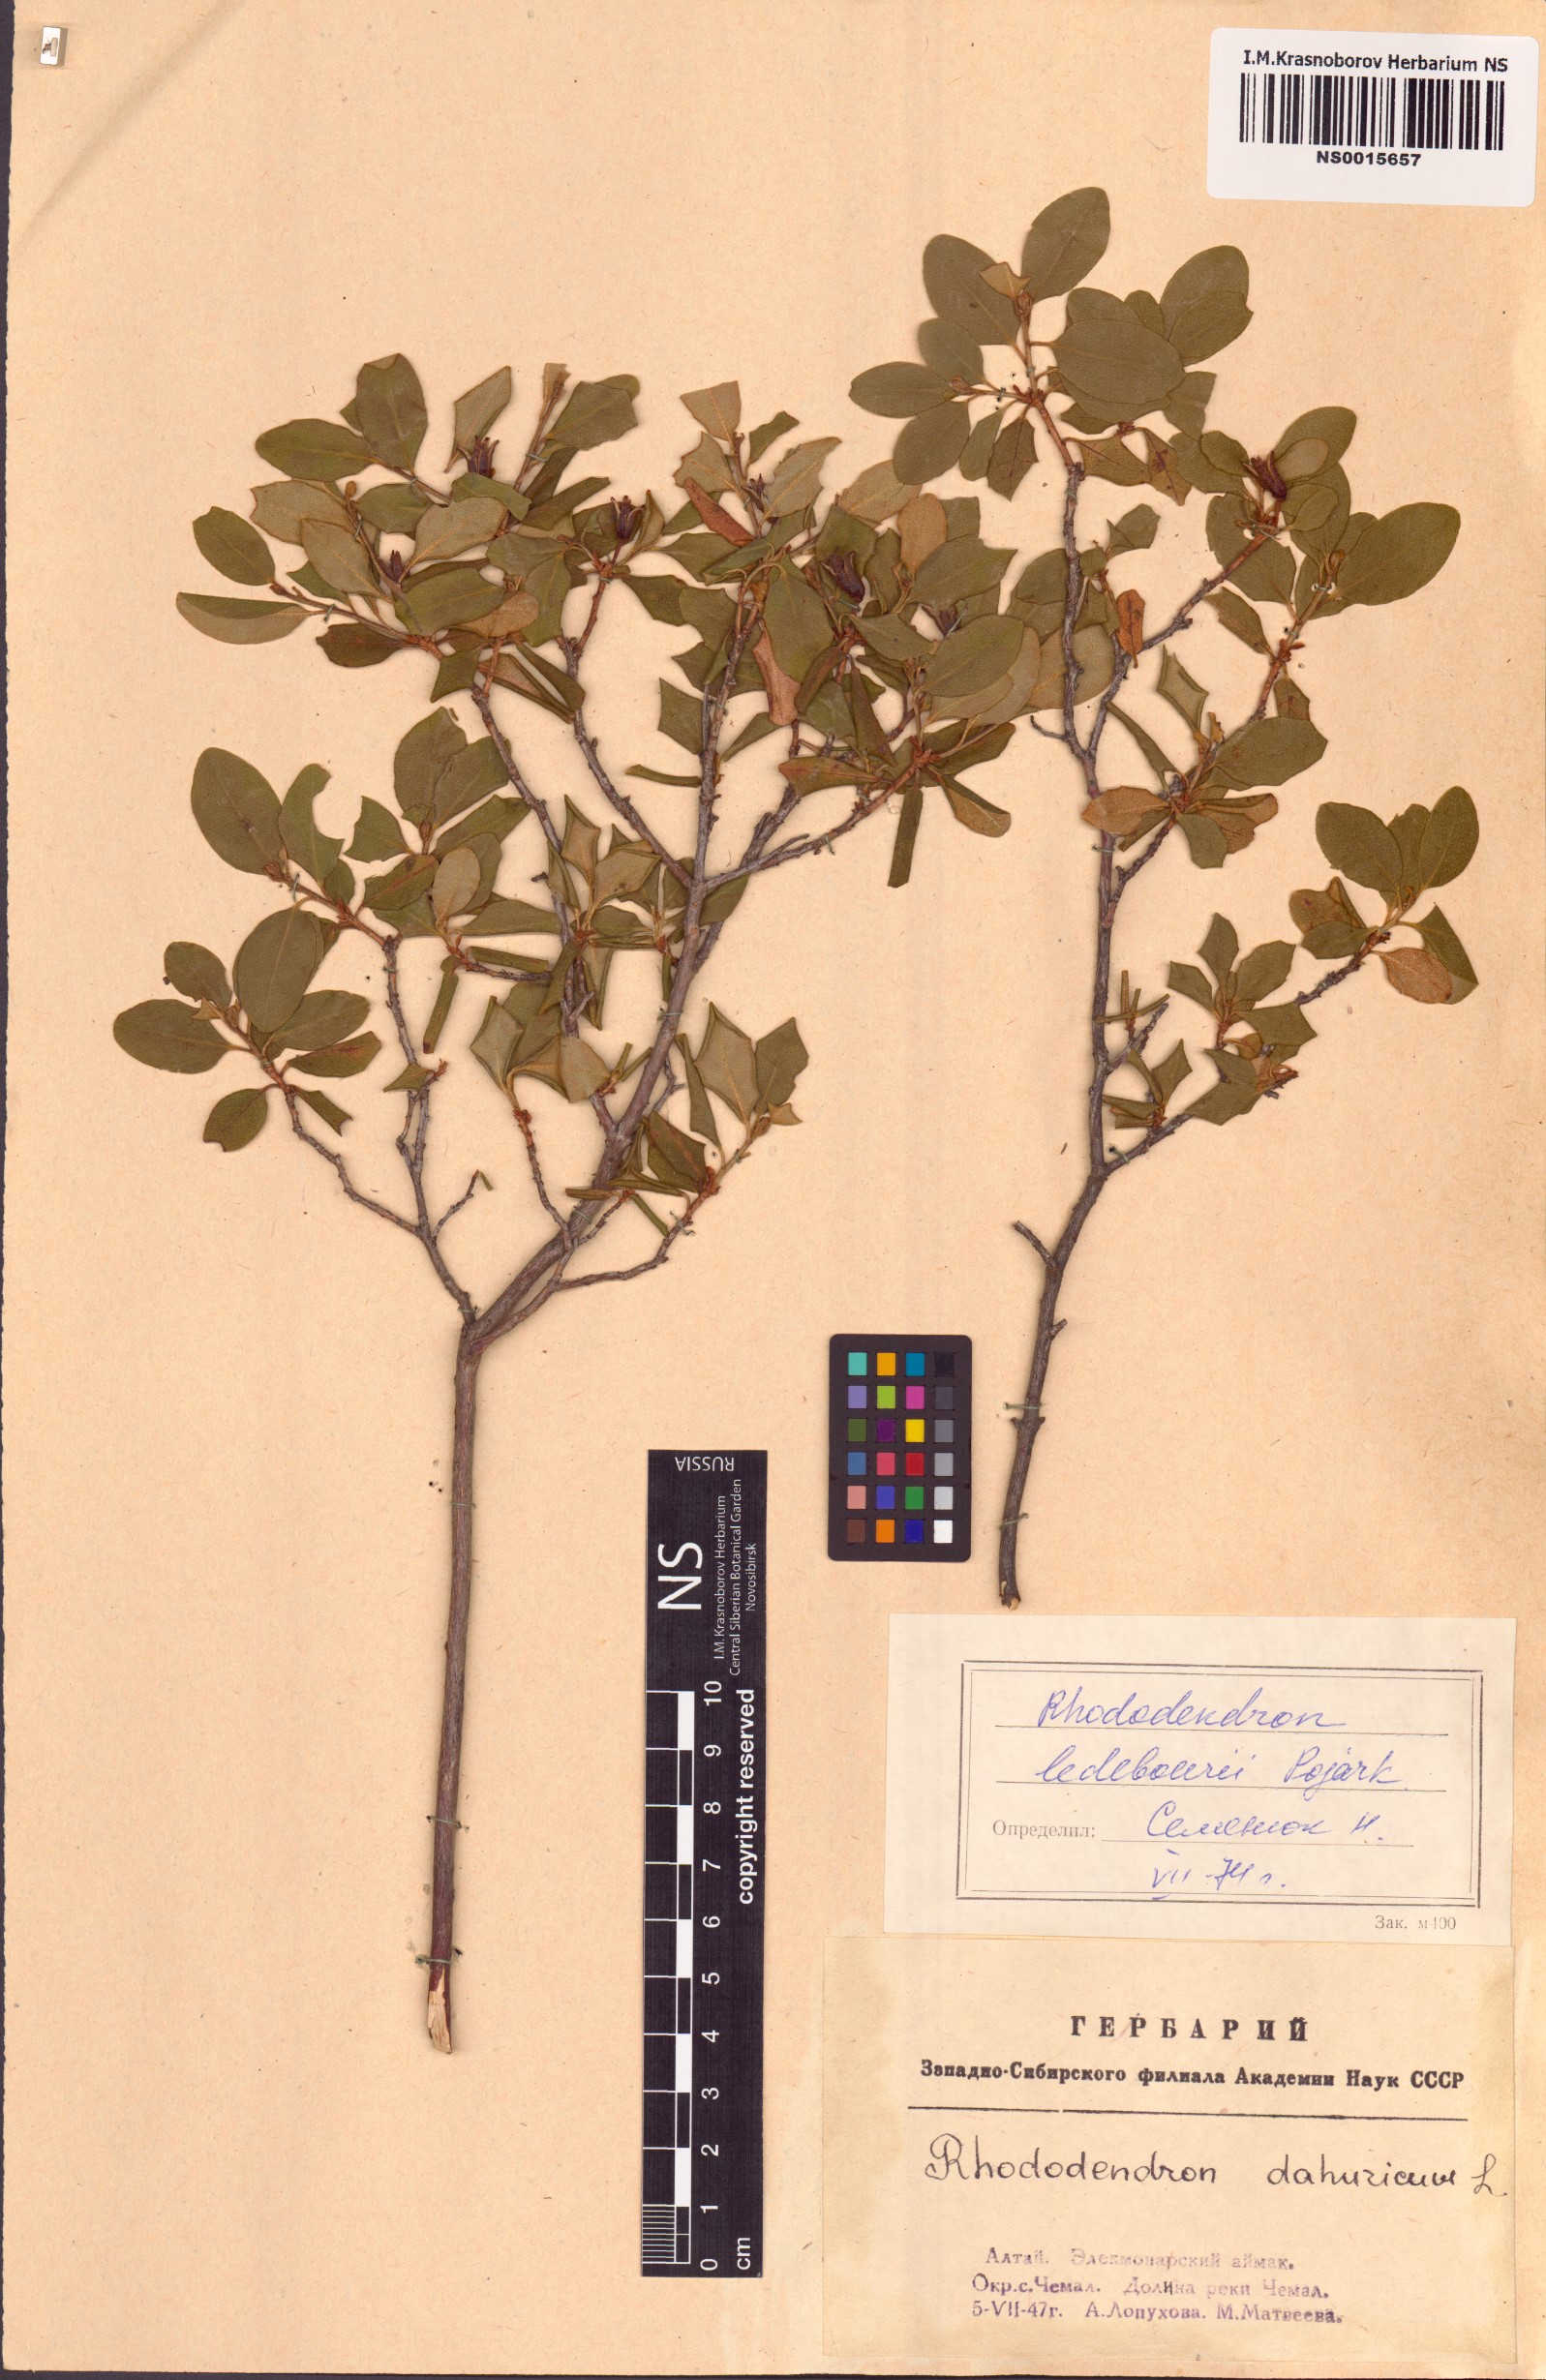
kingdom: Plantae
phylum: Tracheophyta
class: Magnoliopsida
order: Ericales
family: Ericaceae
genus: Rhododendron
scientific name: Rhododendron dauricum
